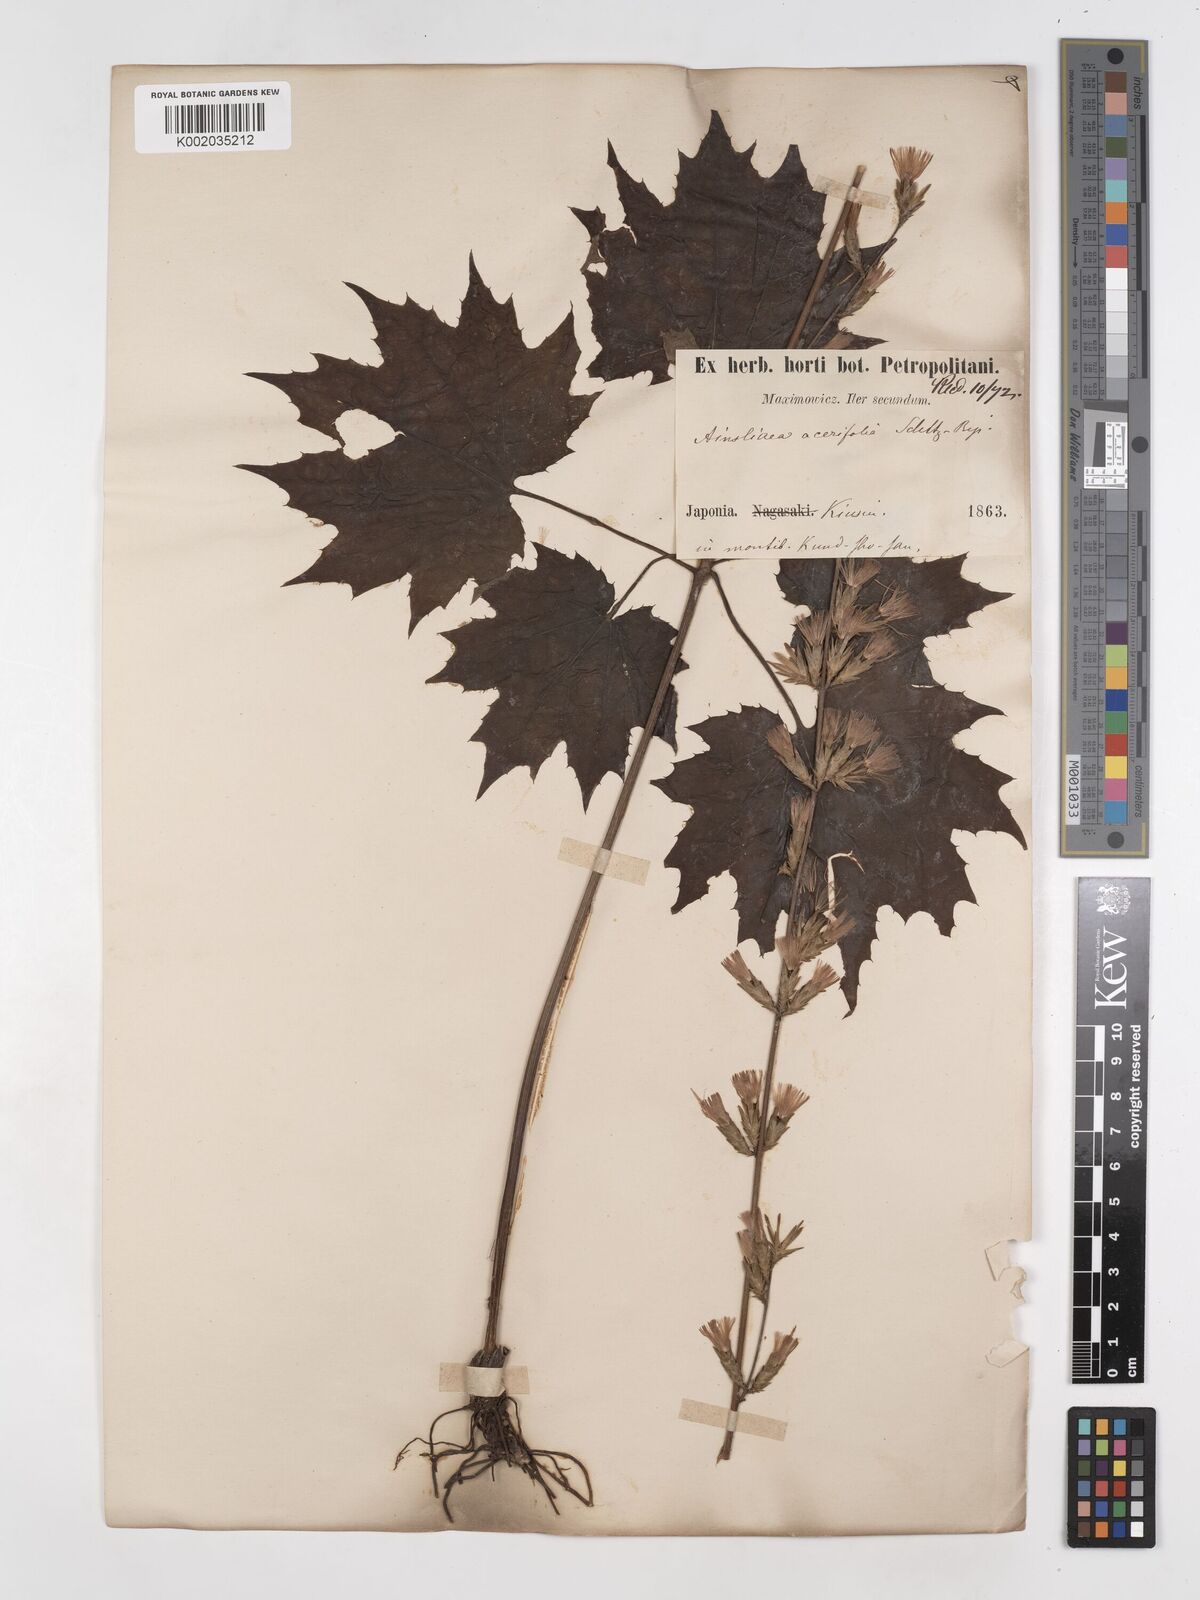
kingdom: Plantae
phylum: Tracheophyta
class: Magnoliopsida
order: Asterales
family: Asteraceae
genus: Ainsliaea
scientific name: Ainsliaea acerifolia
